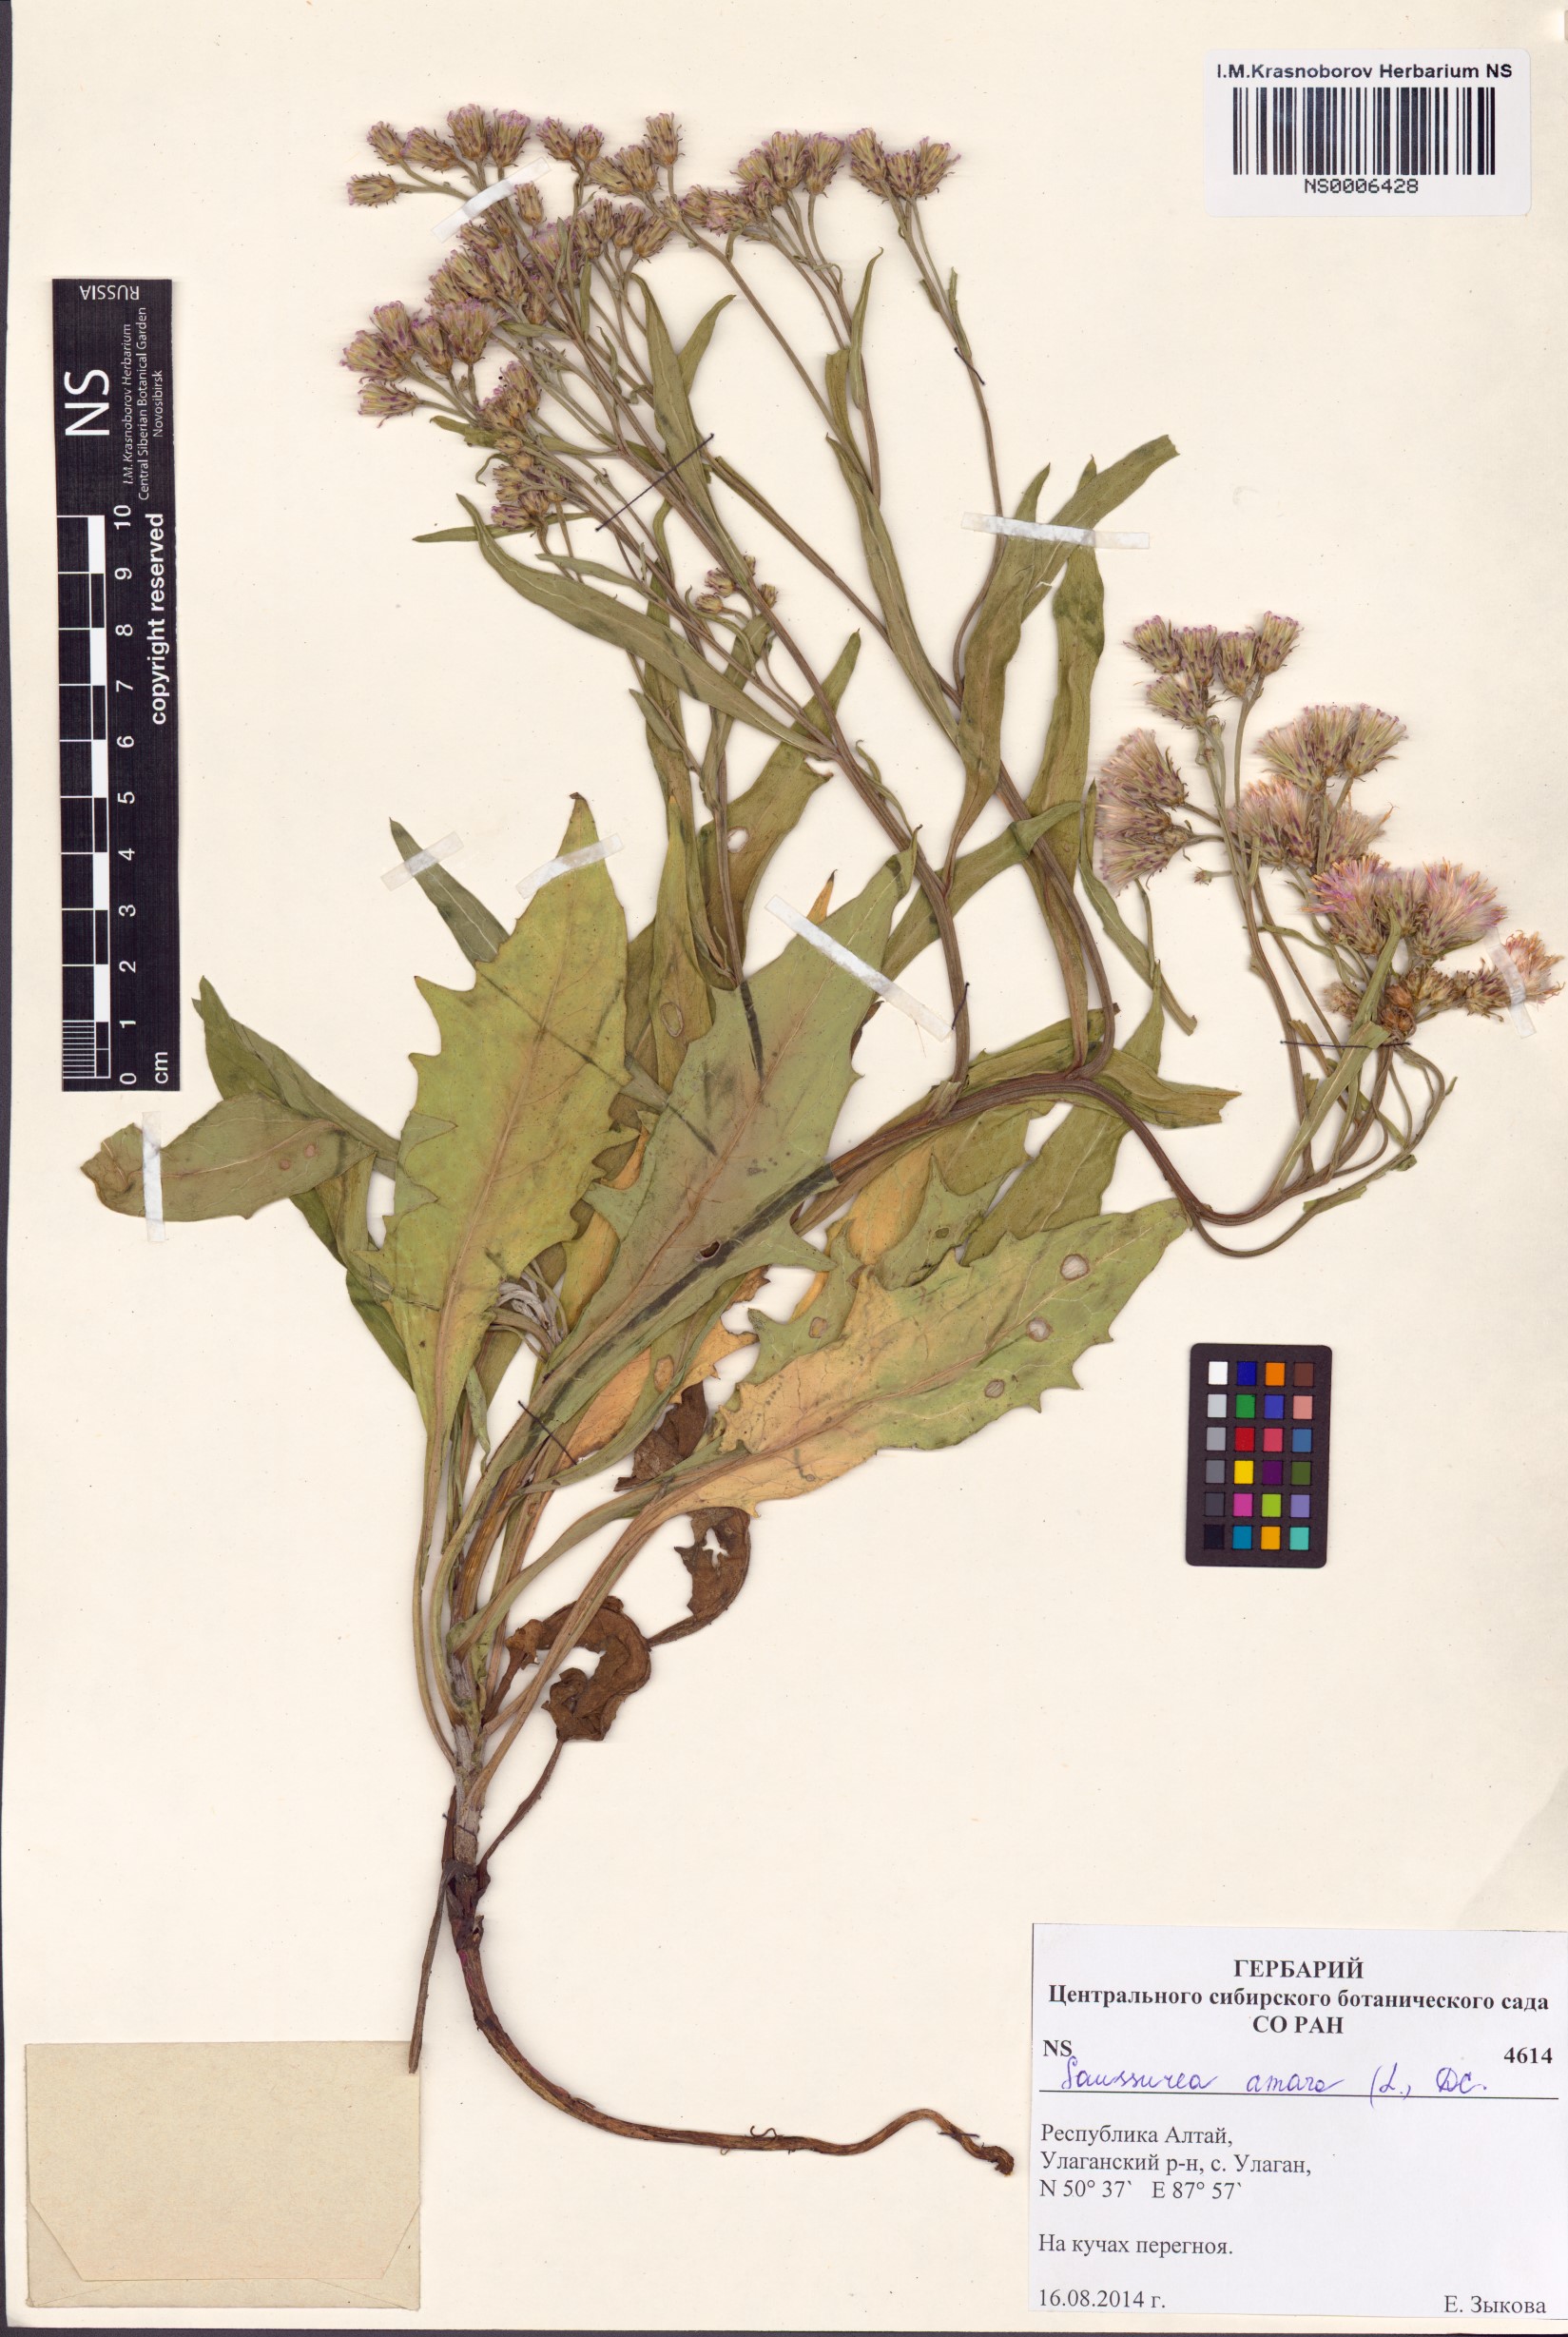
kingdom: Plantae
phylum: Tracheophyta
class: Magnoliopsida
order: Asterales
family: Asteraceae
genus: Saussurea
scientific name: Saussurea amara
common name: Alberta sawwort
